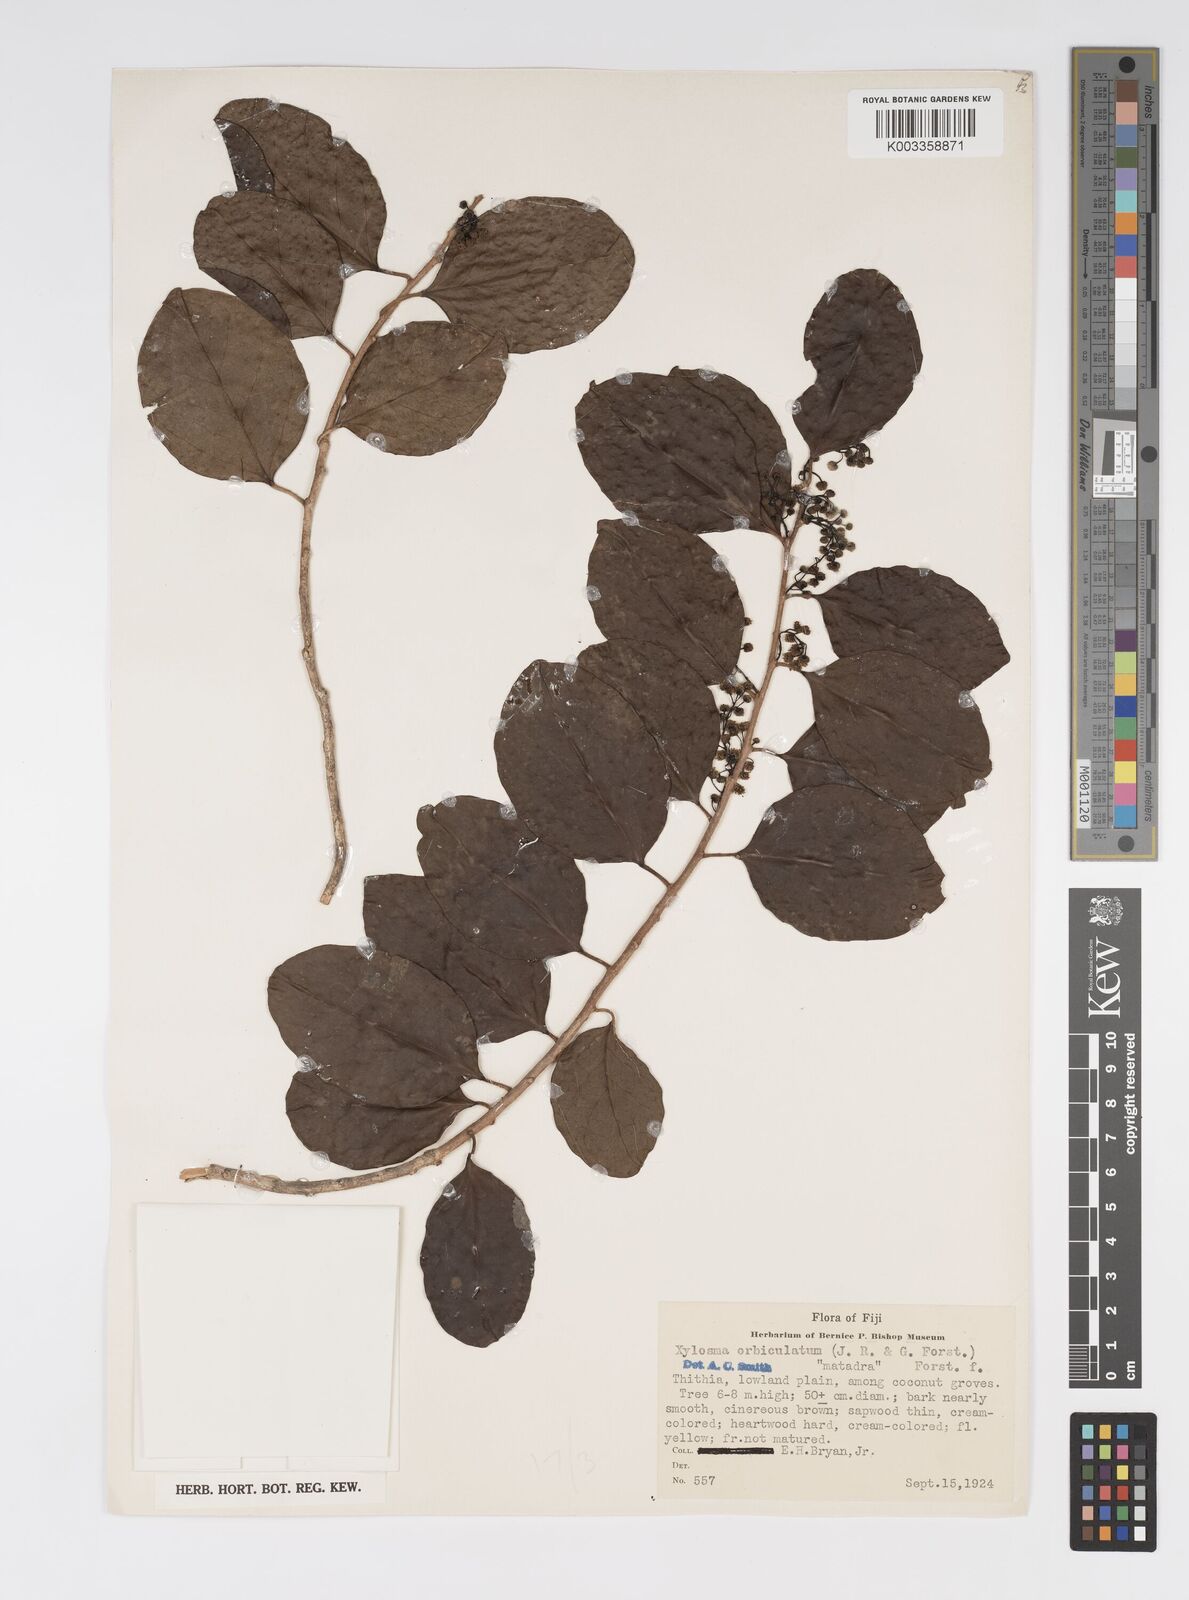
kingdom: Plantae
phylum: Tracheophyta
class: Magnoliopsida
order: Malpighiales
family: Salicaceae
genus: Xylosma
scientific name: Xylosma orbiculata
